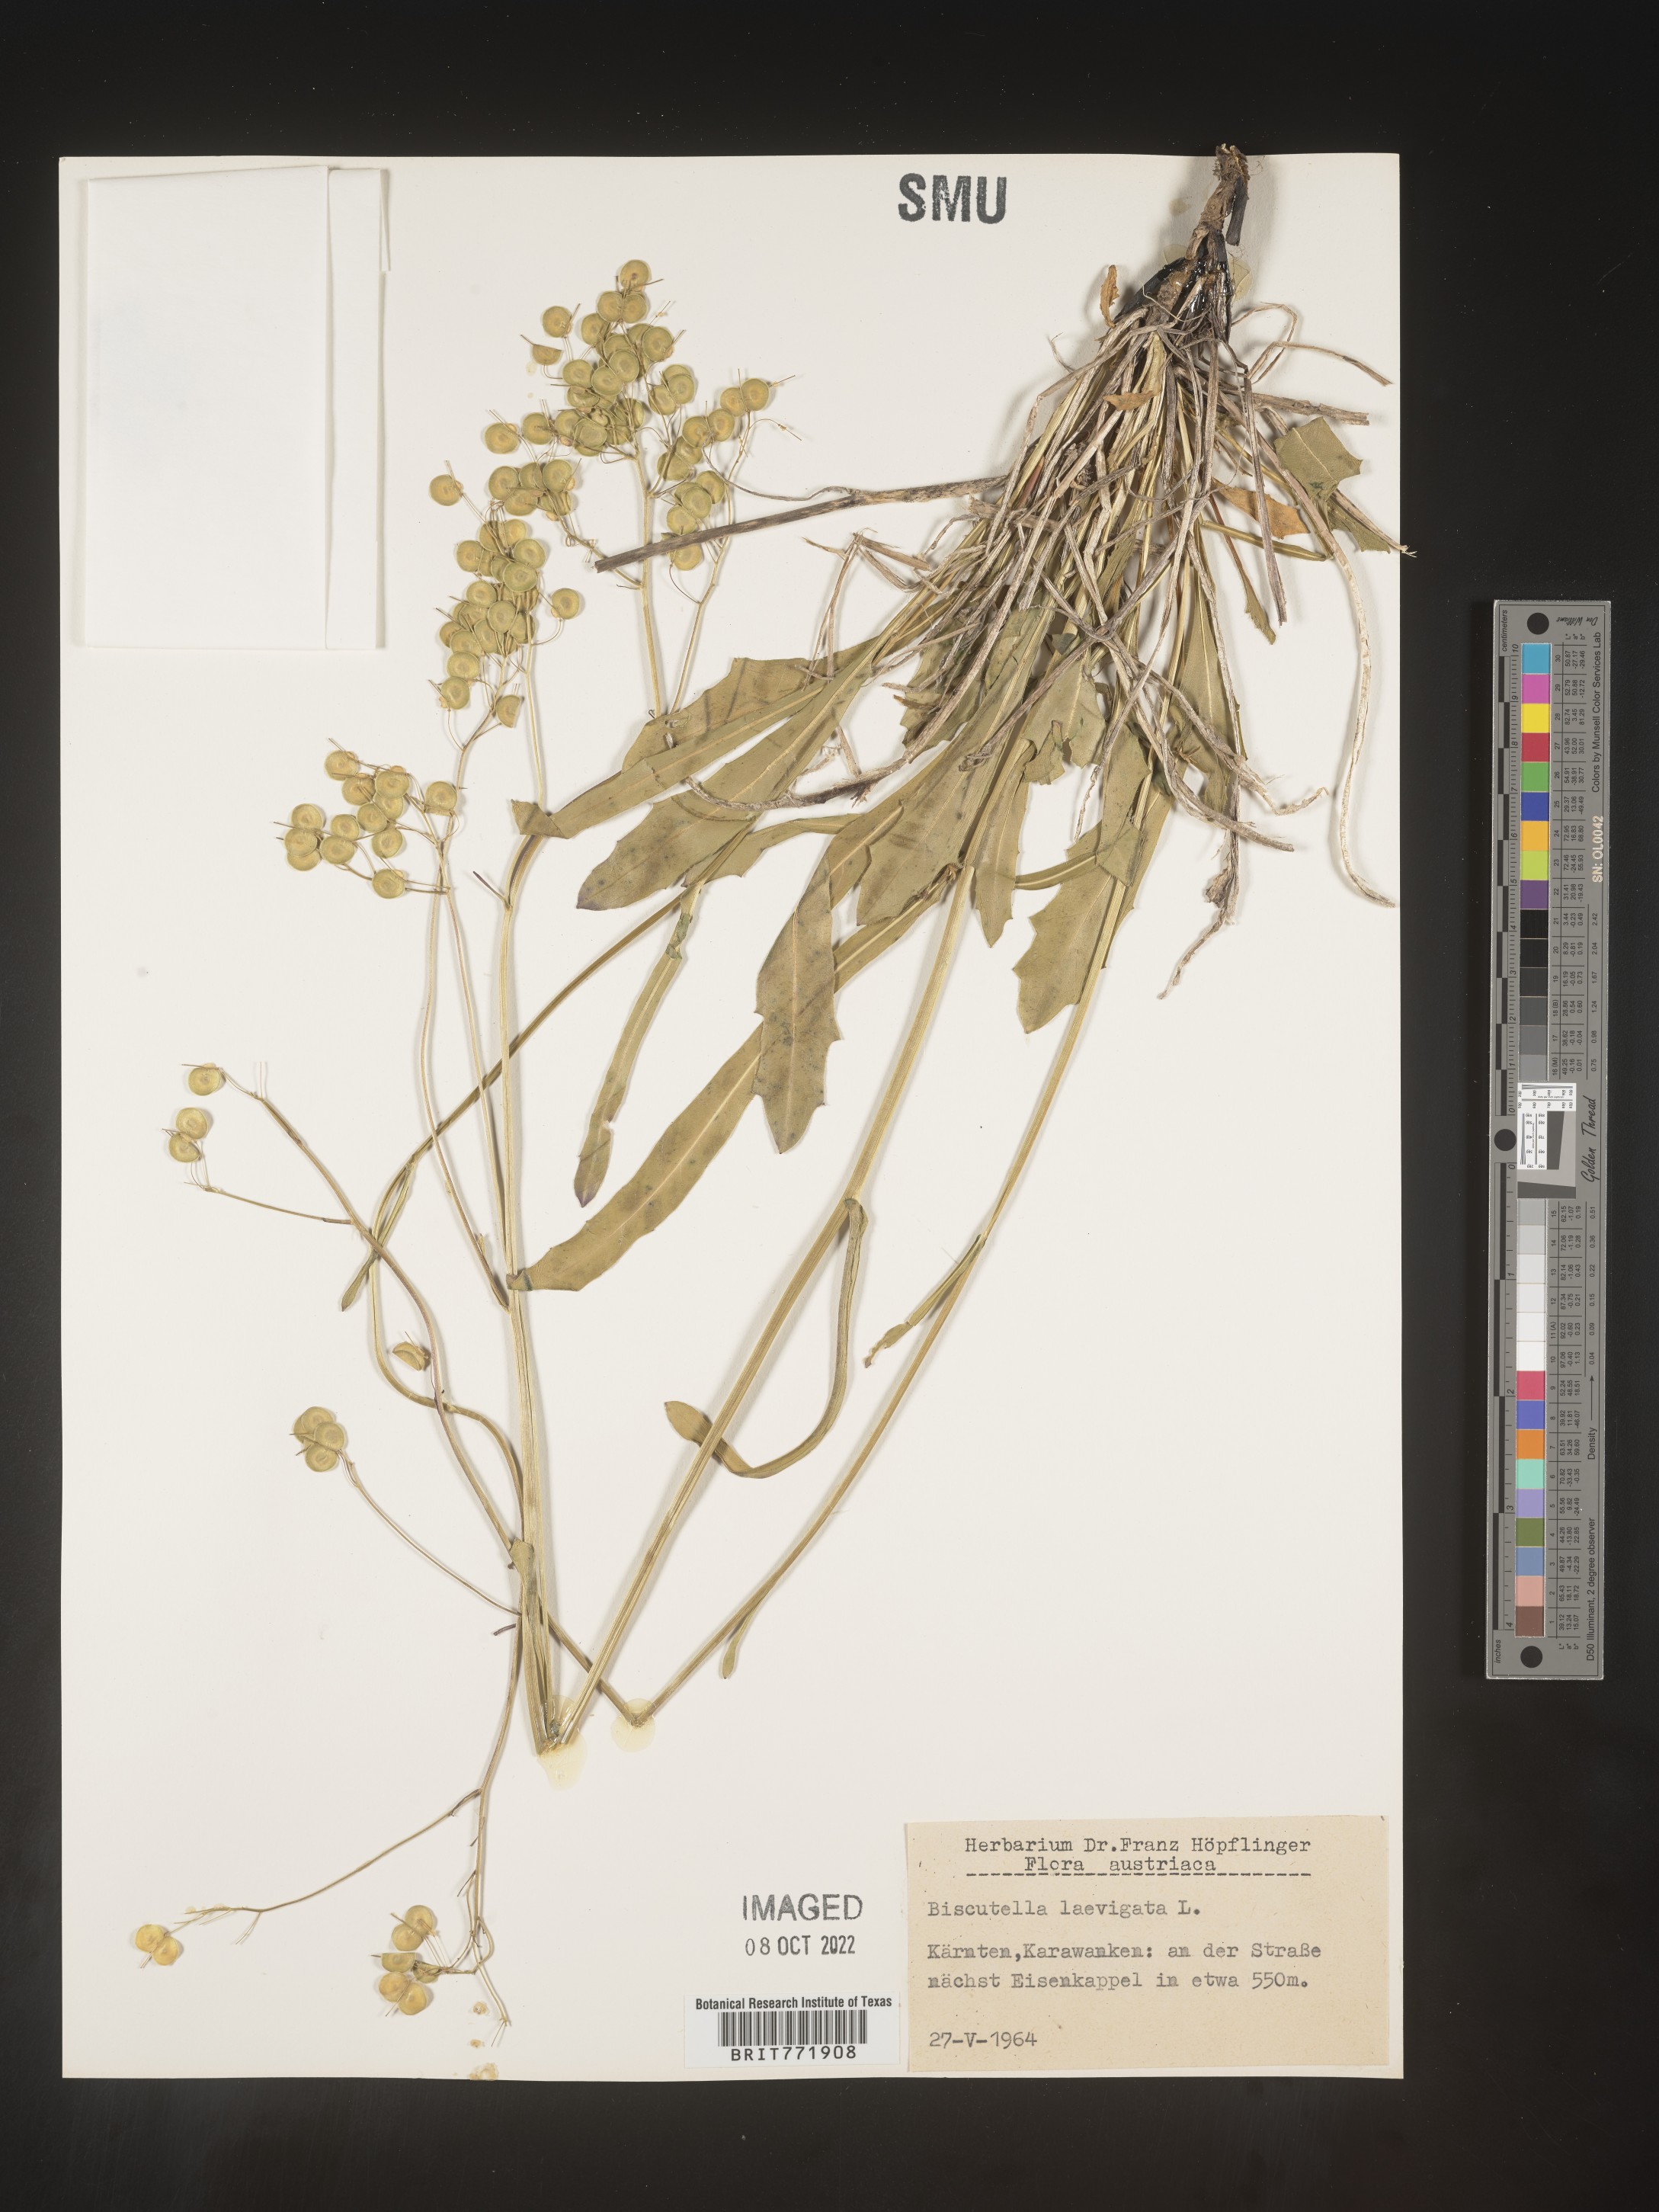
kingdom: Plantae
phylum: Tracheophyta
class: Magnoliopsida
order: Brassicales
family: Brassicaceae
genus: Biscutella
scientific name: Biscutella
